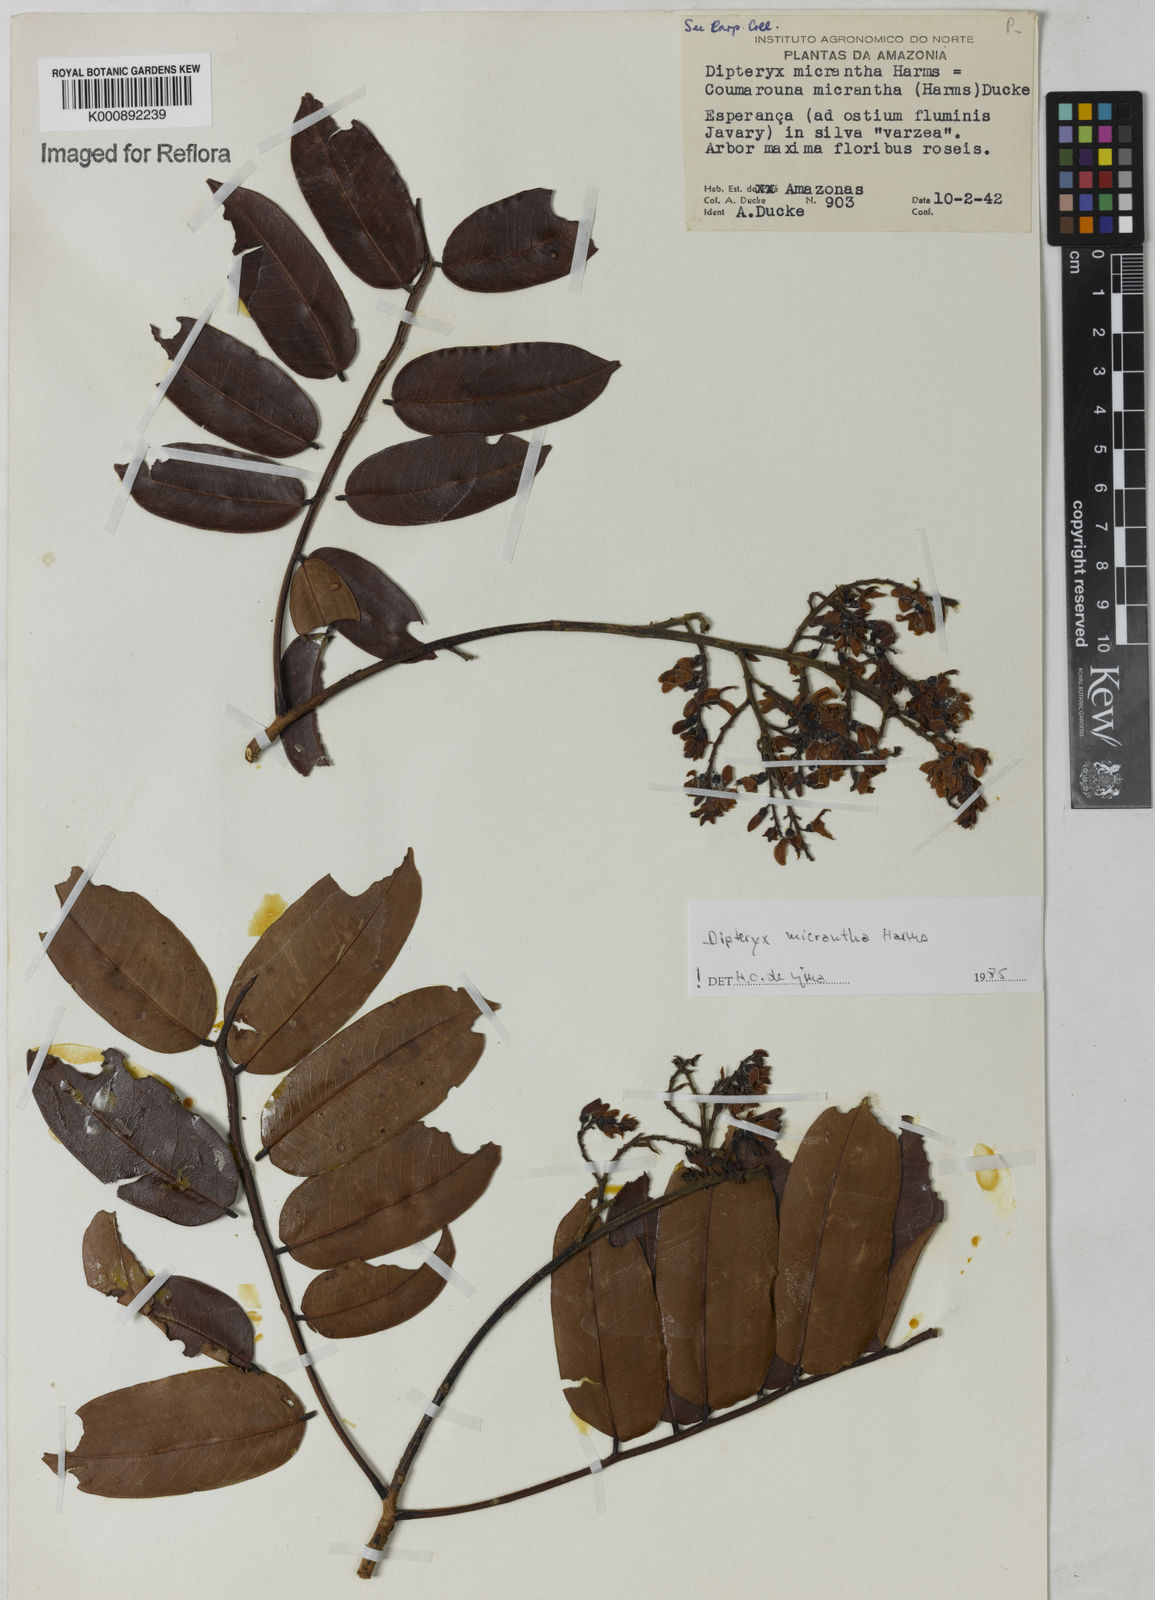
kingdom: Plantae
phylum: Tracheophyta
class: Magnoliopsida
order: Fabales
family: Fabaceae
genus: Dipteryx
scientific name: Dipteryx micrantha
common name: Brazilian teak
